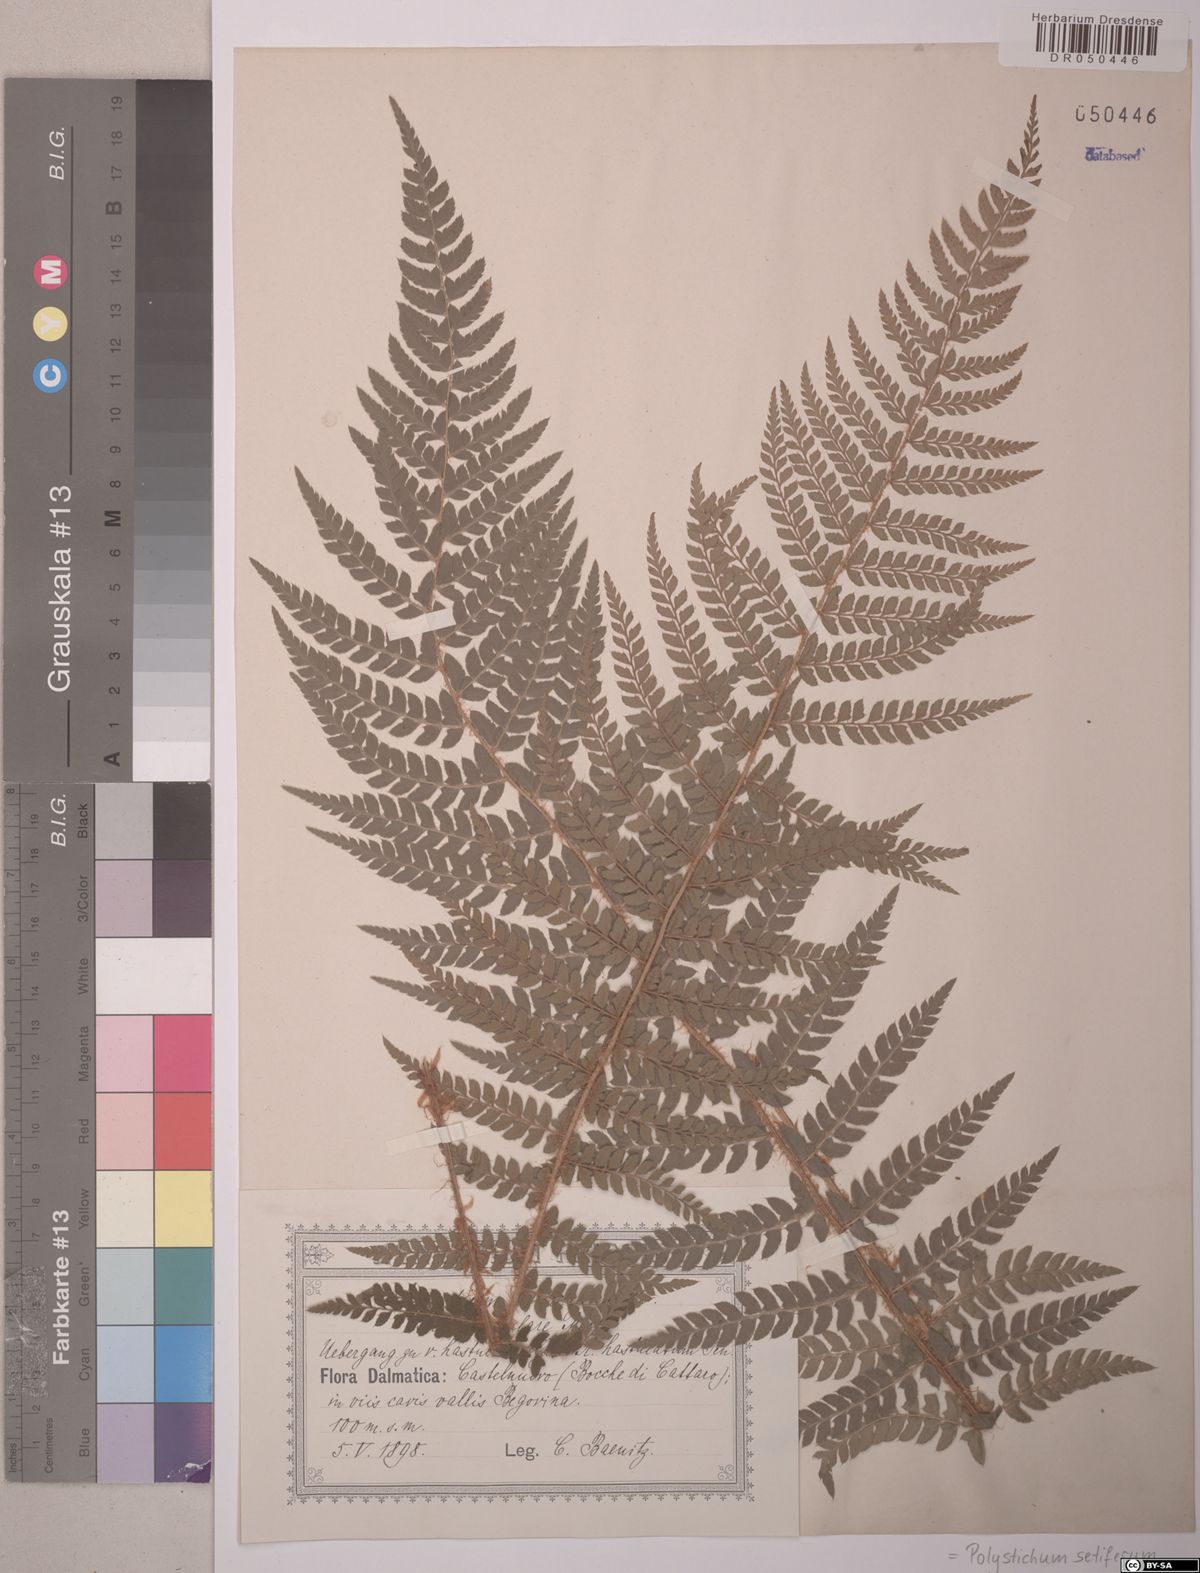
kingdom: Plantae
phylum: Tracheophyta
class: Polypodiopsida
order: Polypodiales
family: Dryopteridaceae
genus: Polystichum
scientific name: Polystichum setiferum
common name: Soft shield-fern
